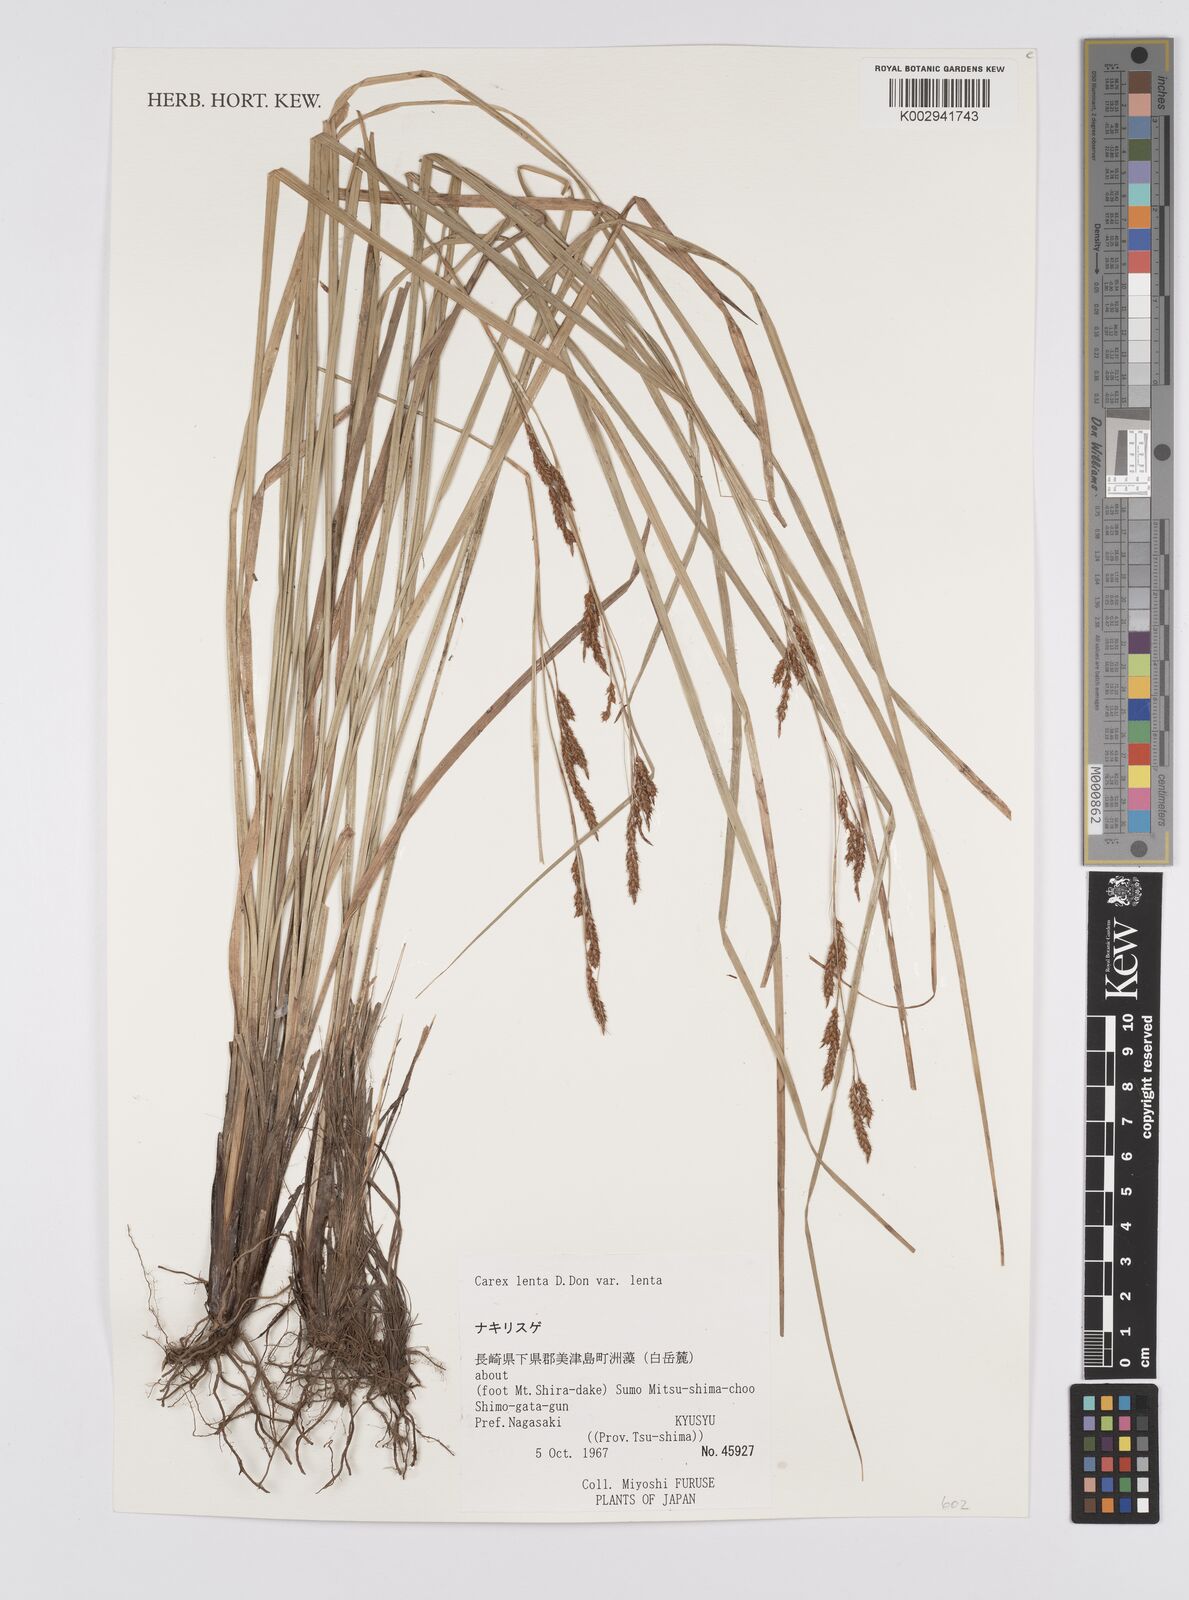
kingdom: Plantae
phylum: Tracheophyta
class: Liliopsida
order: Poales
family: Cyperaceae
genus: Carex
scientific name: Carex brunnea
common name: Greater brown sedge
